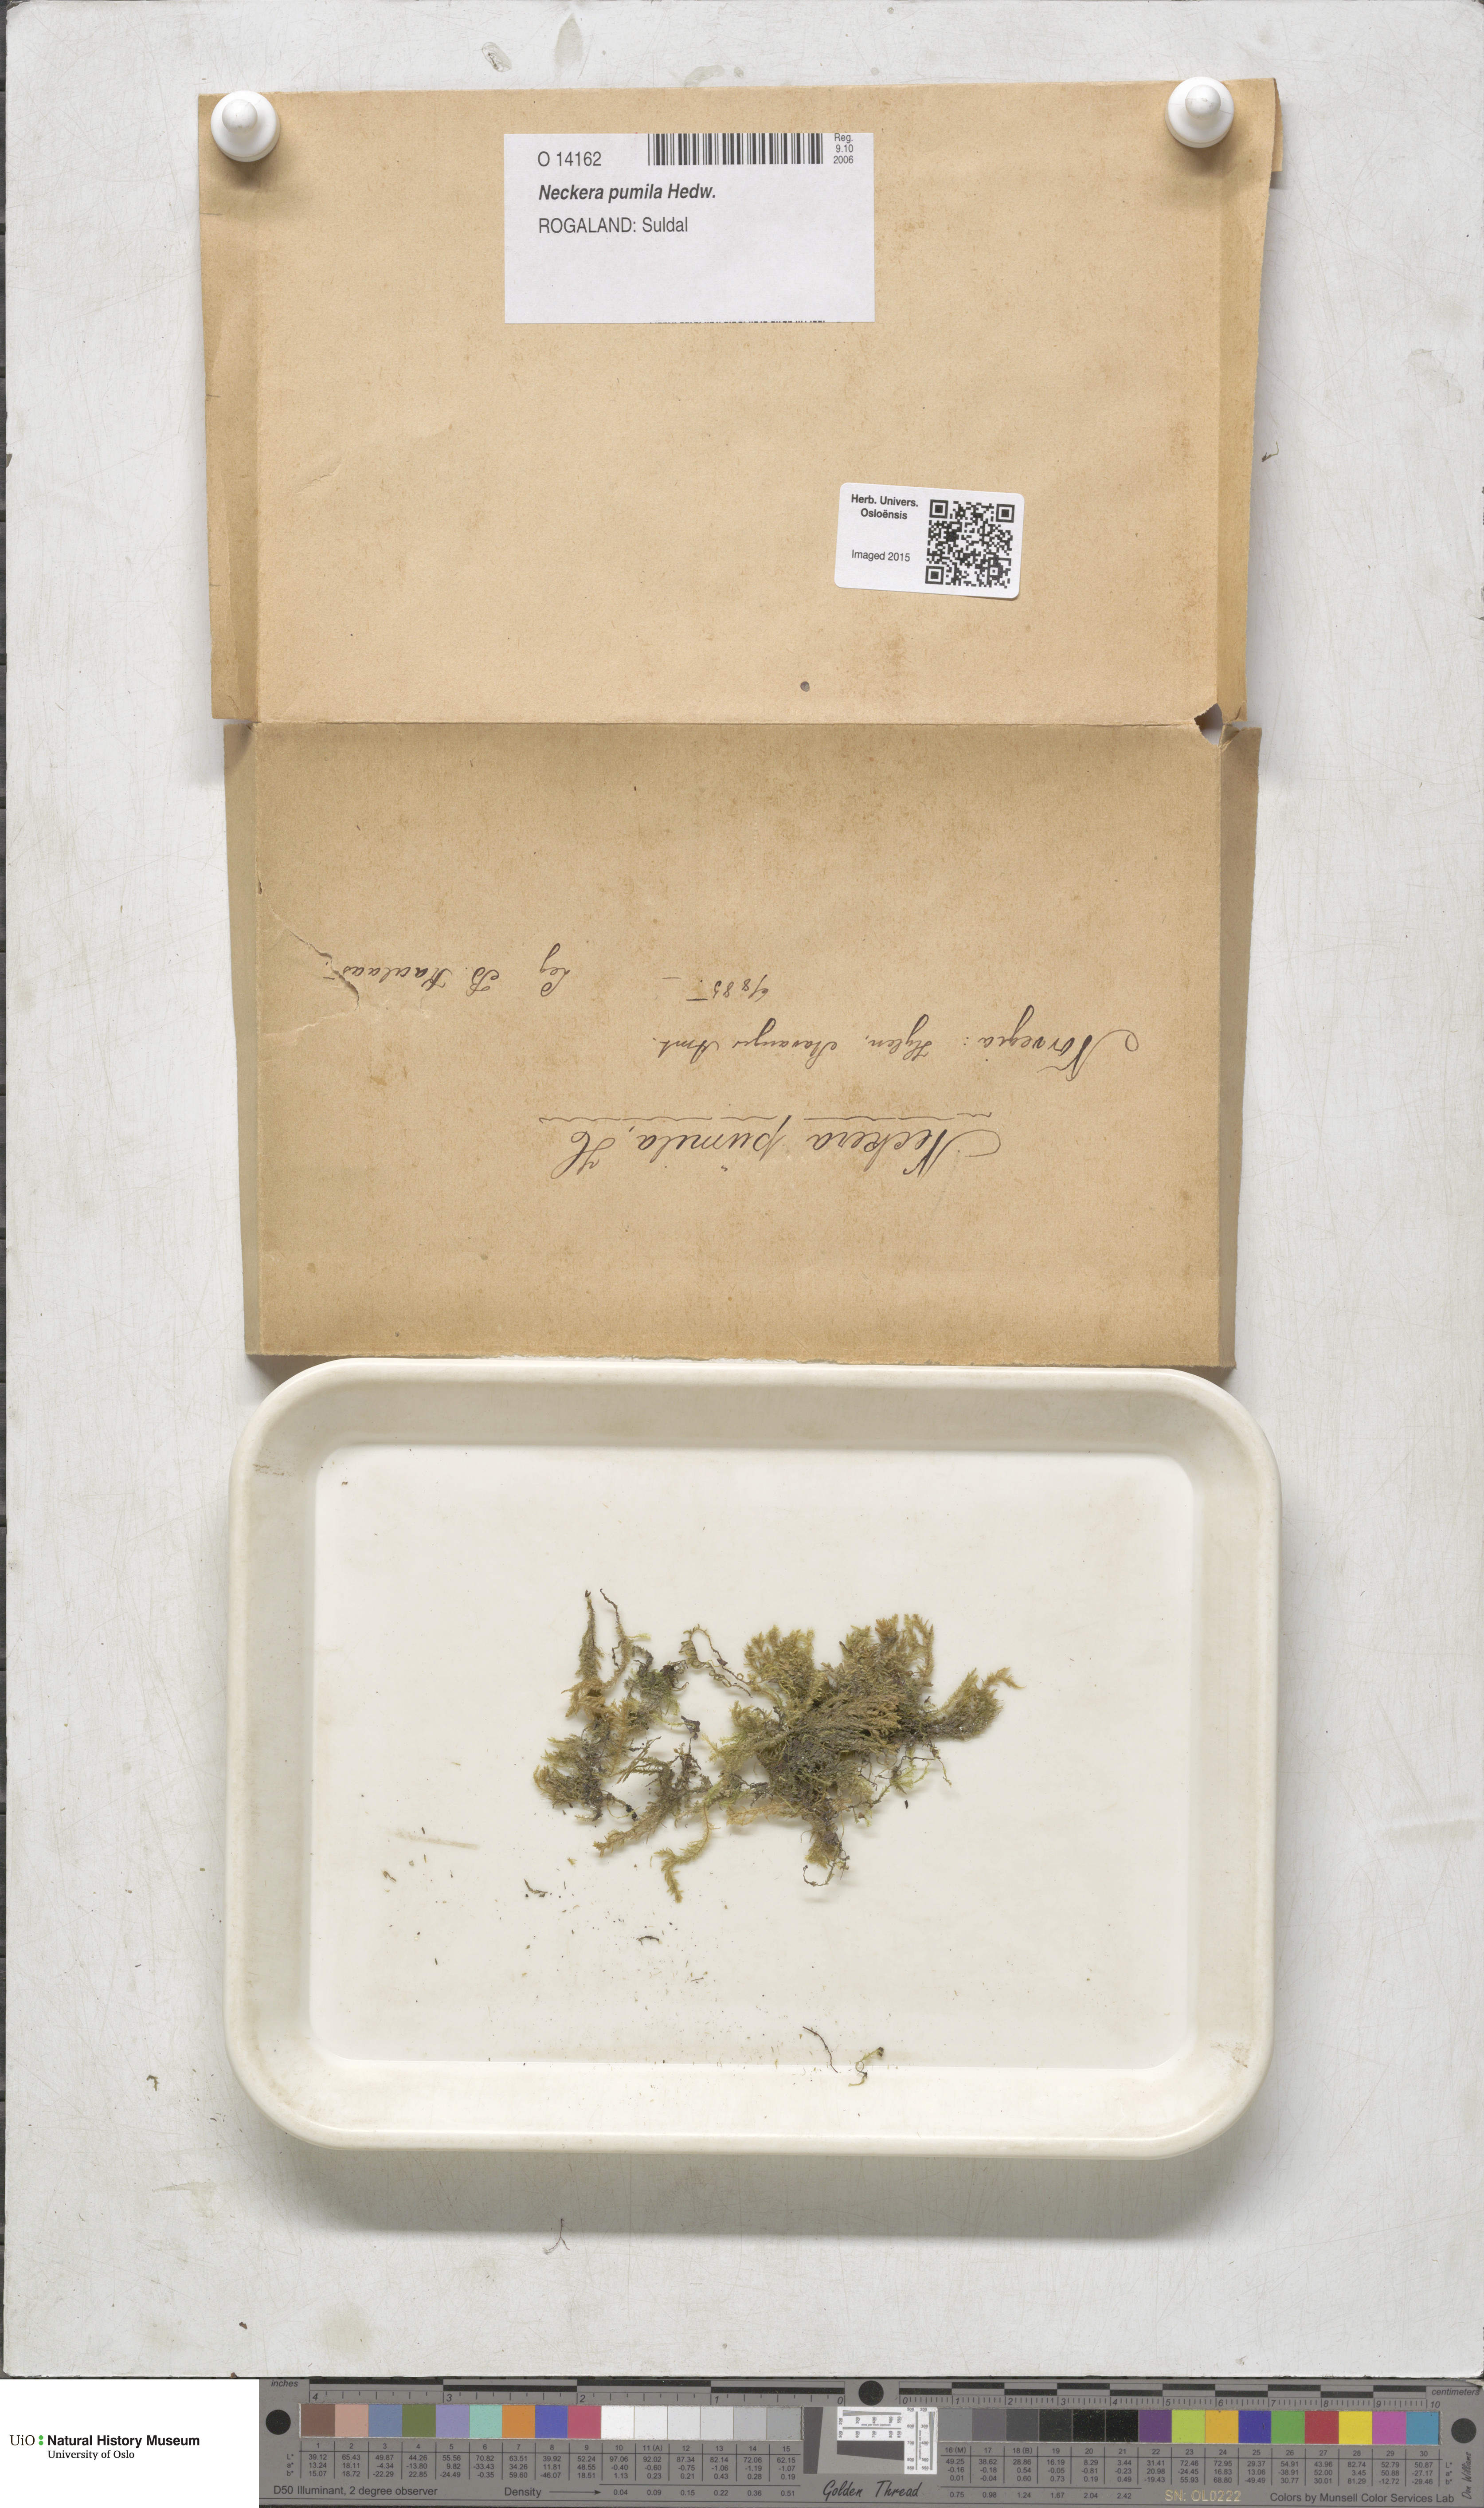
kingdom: Plantae
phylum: Bryophyta
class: Bryopsida
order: Hypnales
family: Neckeraceae
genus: Neckera
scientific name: Neckera pumila
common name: Dwarf neckera
